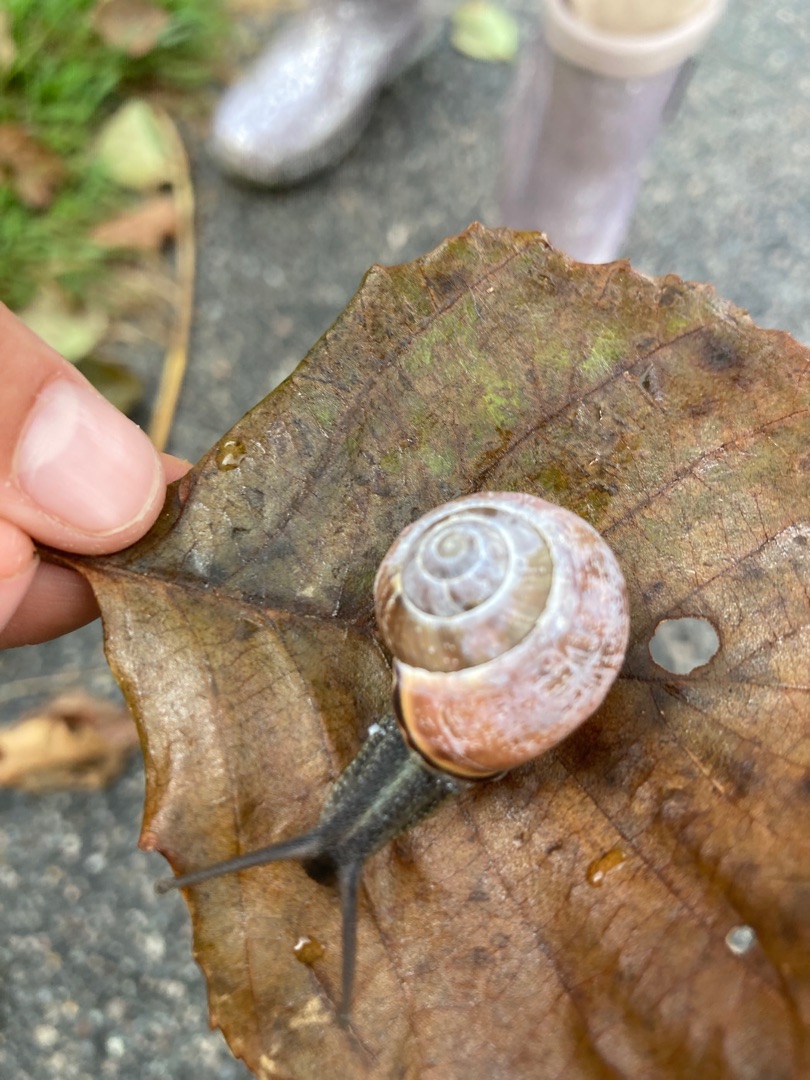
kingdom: Animalia
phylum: Mollusca
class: Gastropoda
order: Stylommatophora
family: Helicidae
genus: Cepaea
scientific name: Cepaea nemoralis
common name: Lundsnegl
